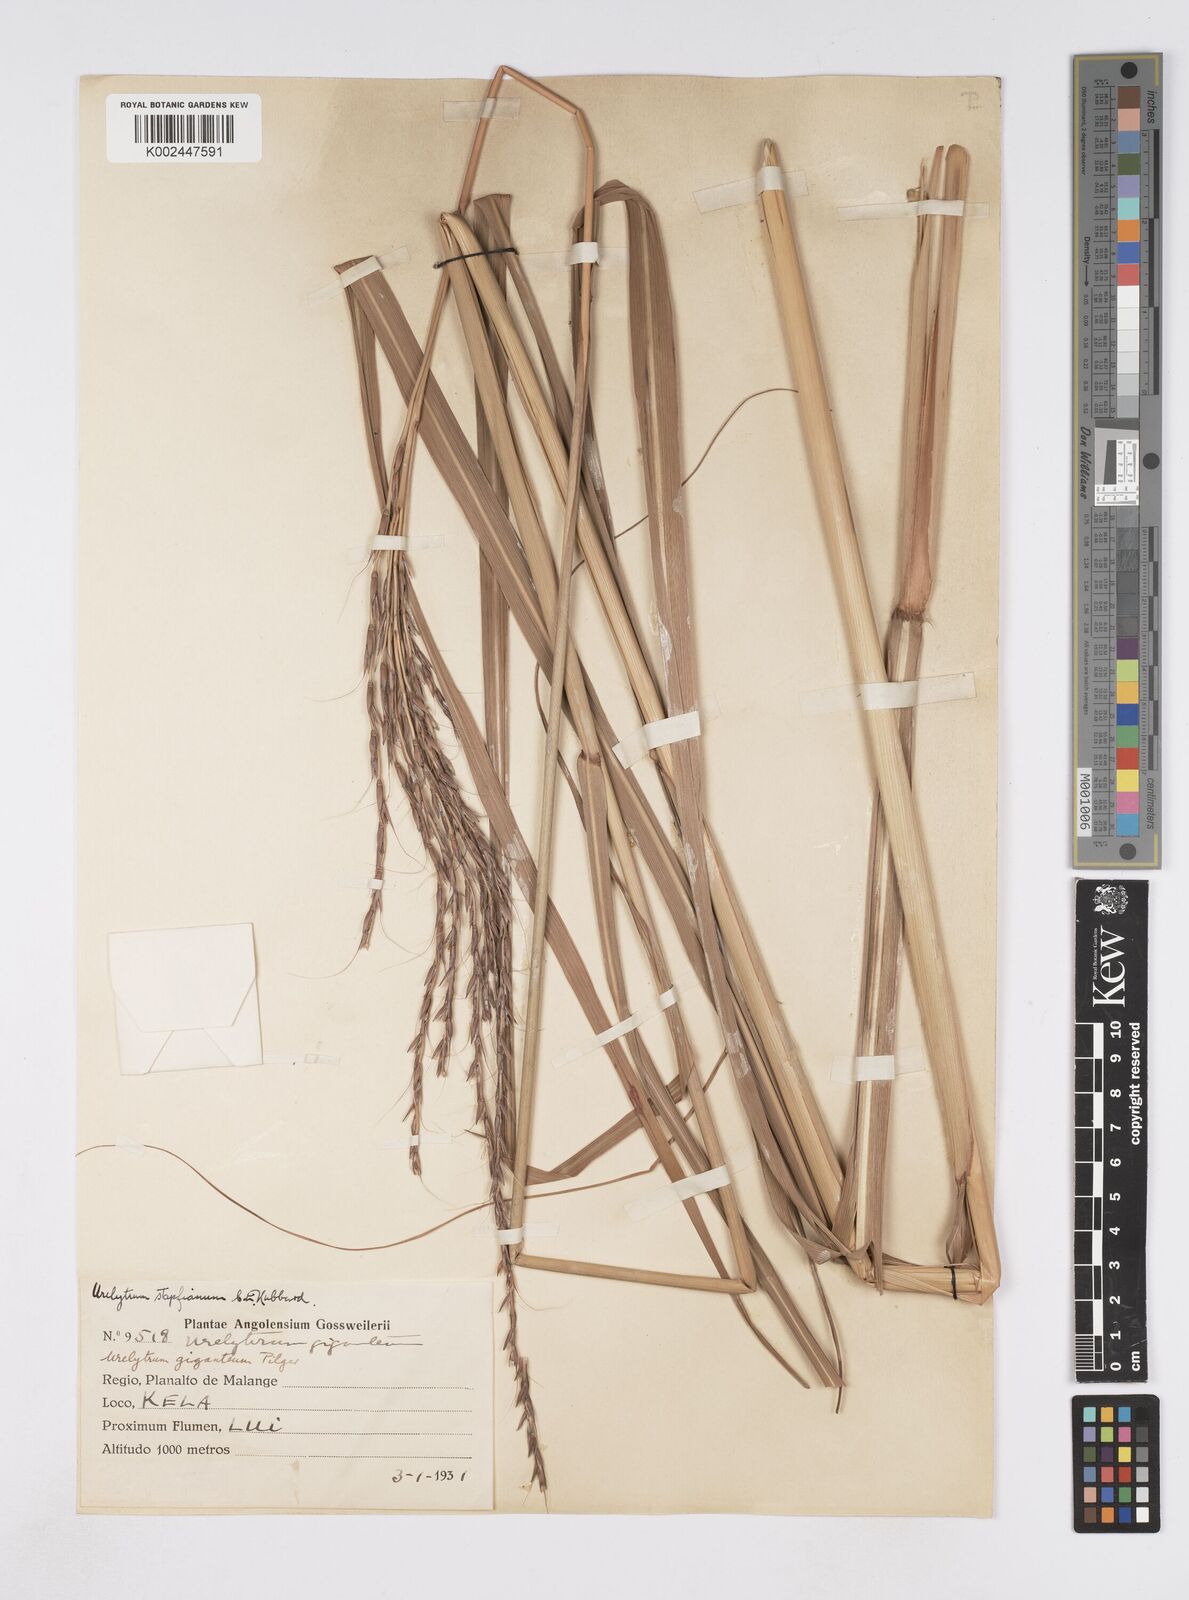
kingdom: Plantae
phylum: Tracheophyta
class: Liliopsida
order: Poales
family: Poaceae
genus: Urelytrum
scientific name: Urelytrum digitatum
